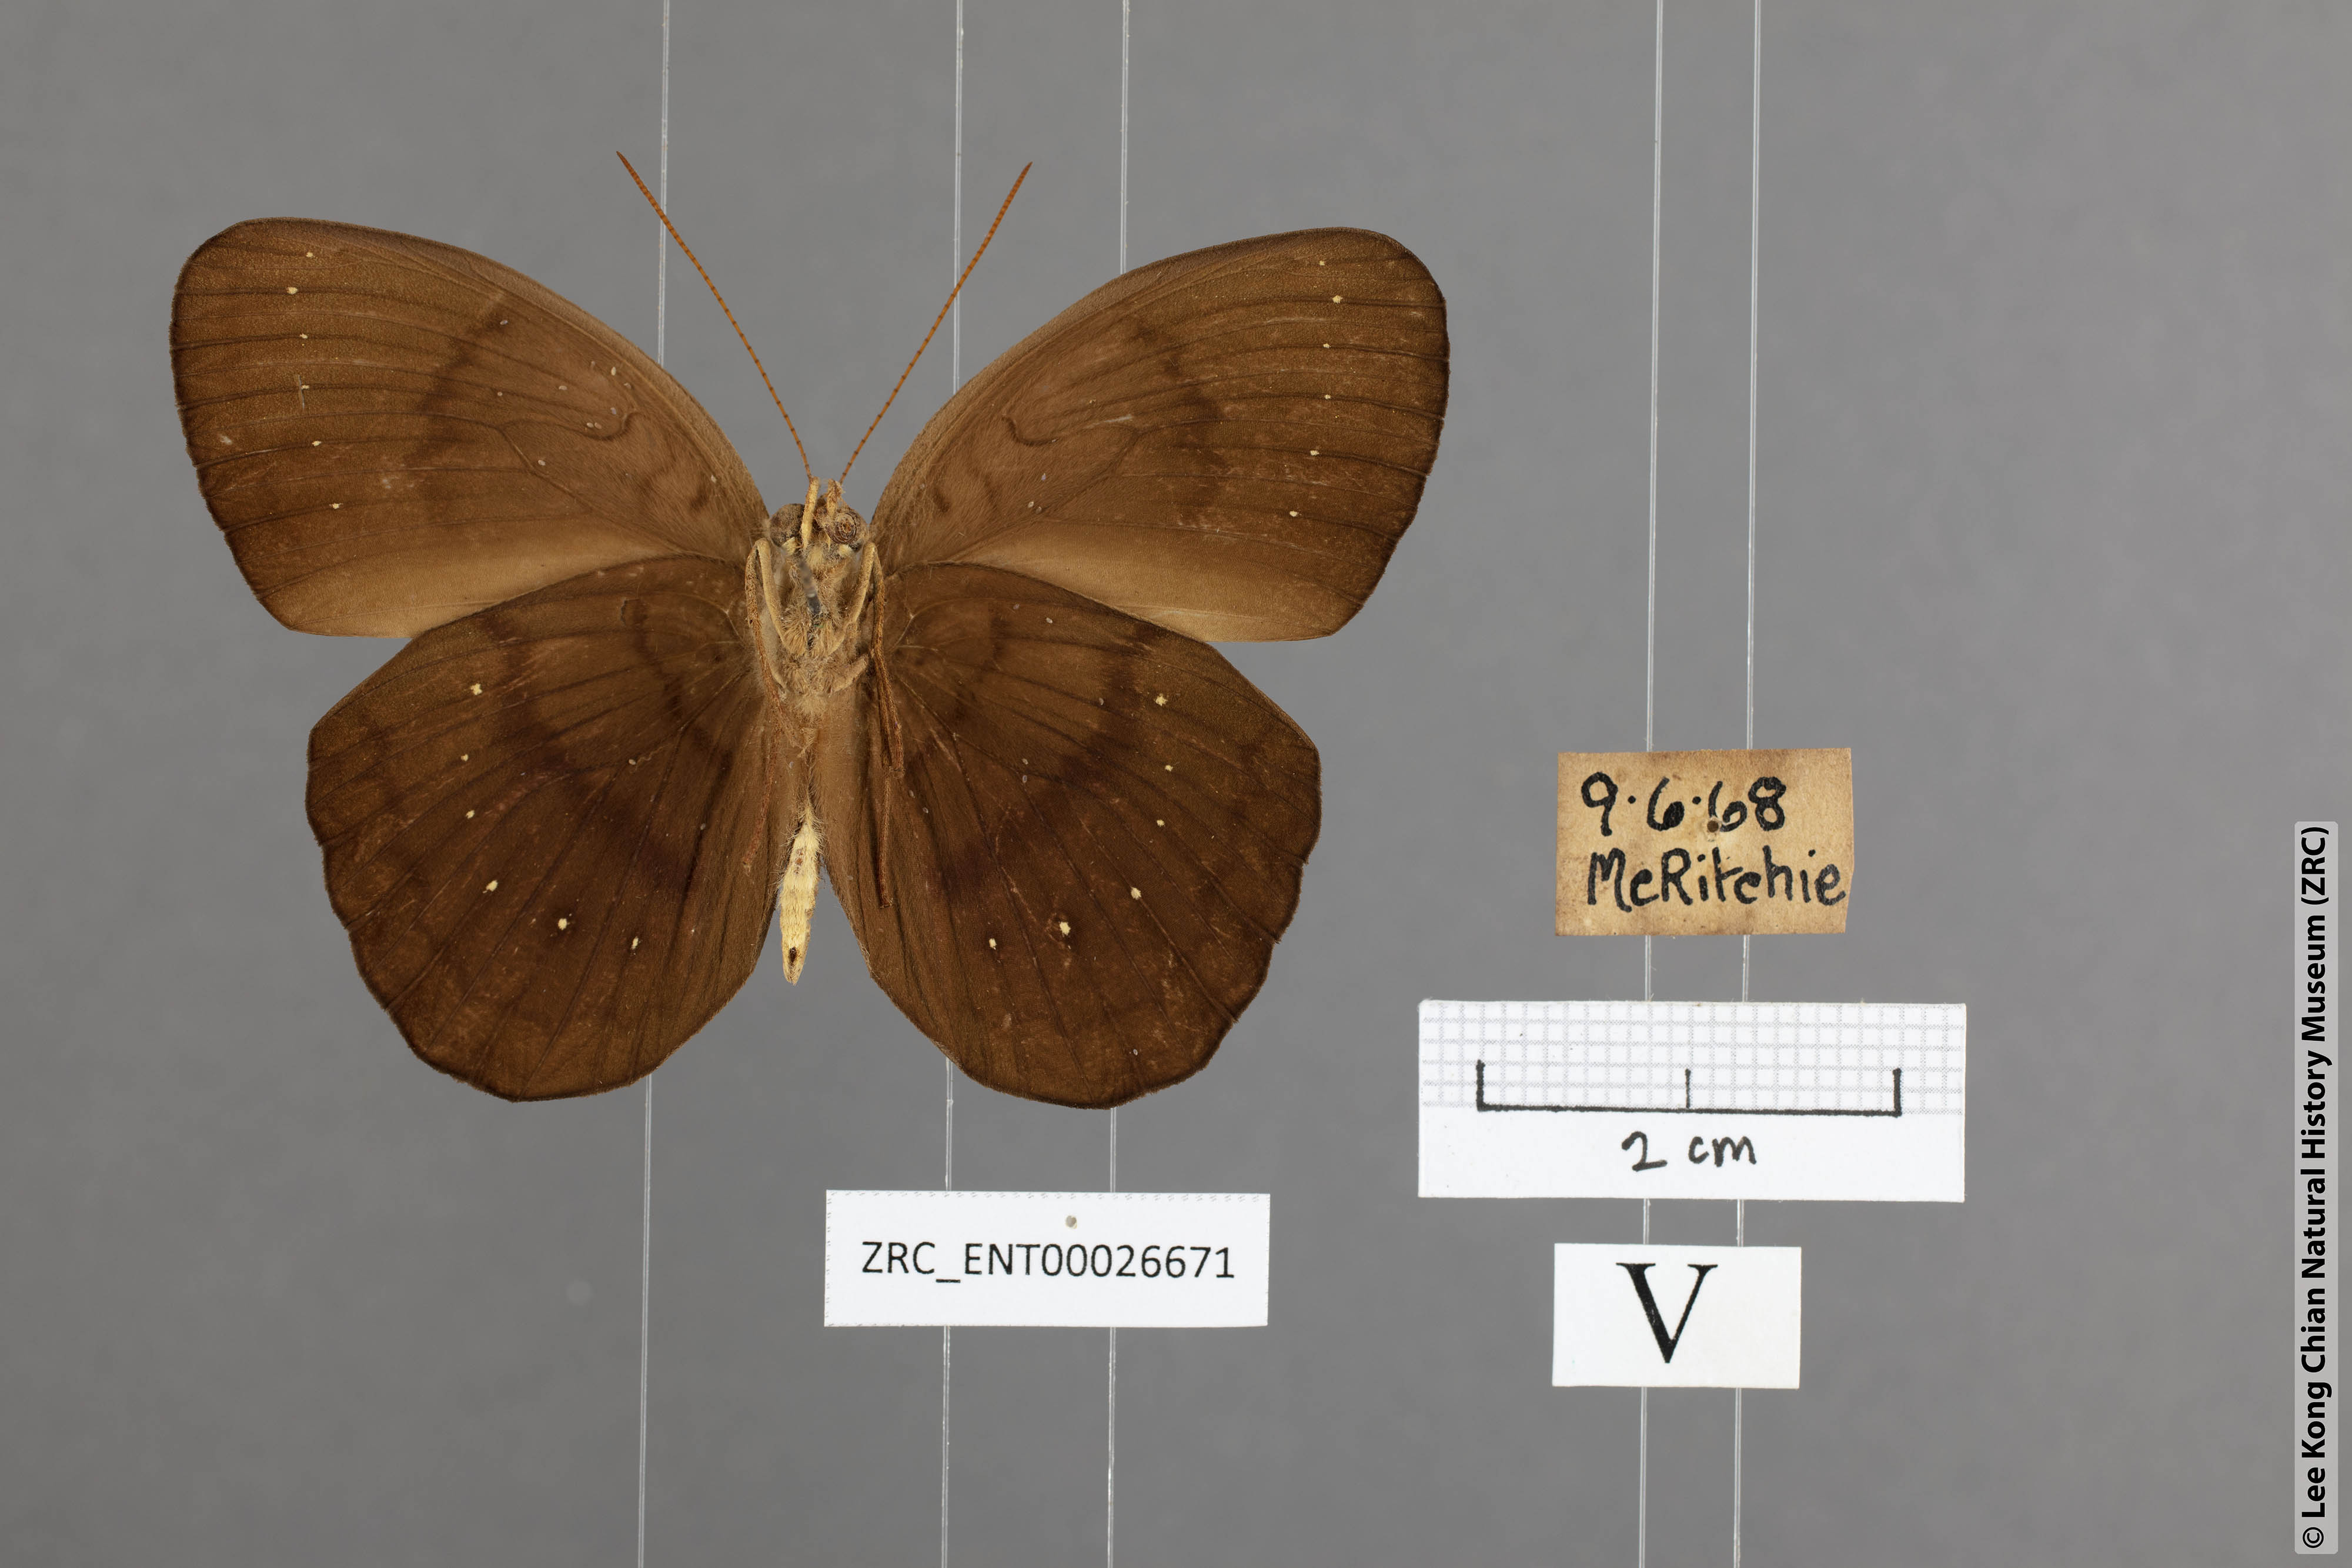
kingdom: Animalia
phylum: Arthropoda
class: Insecta
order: Lepidoptera
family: Nymphalidae
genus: Faunis
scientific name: Faunis canens
